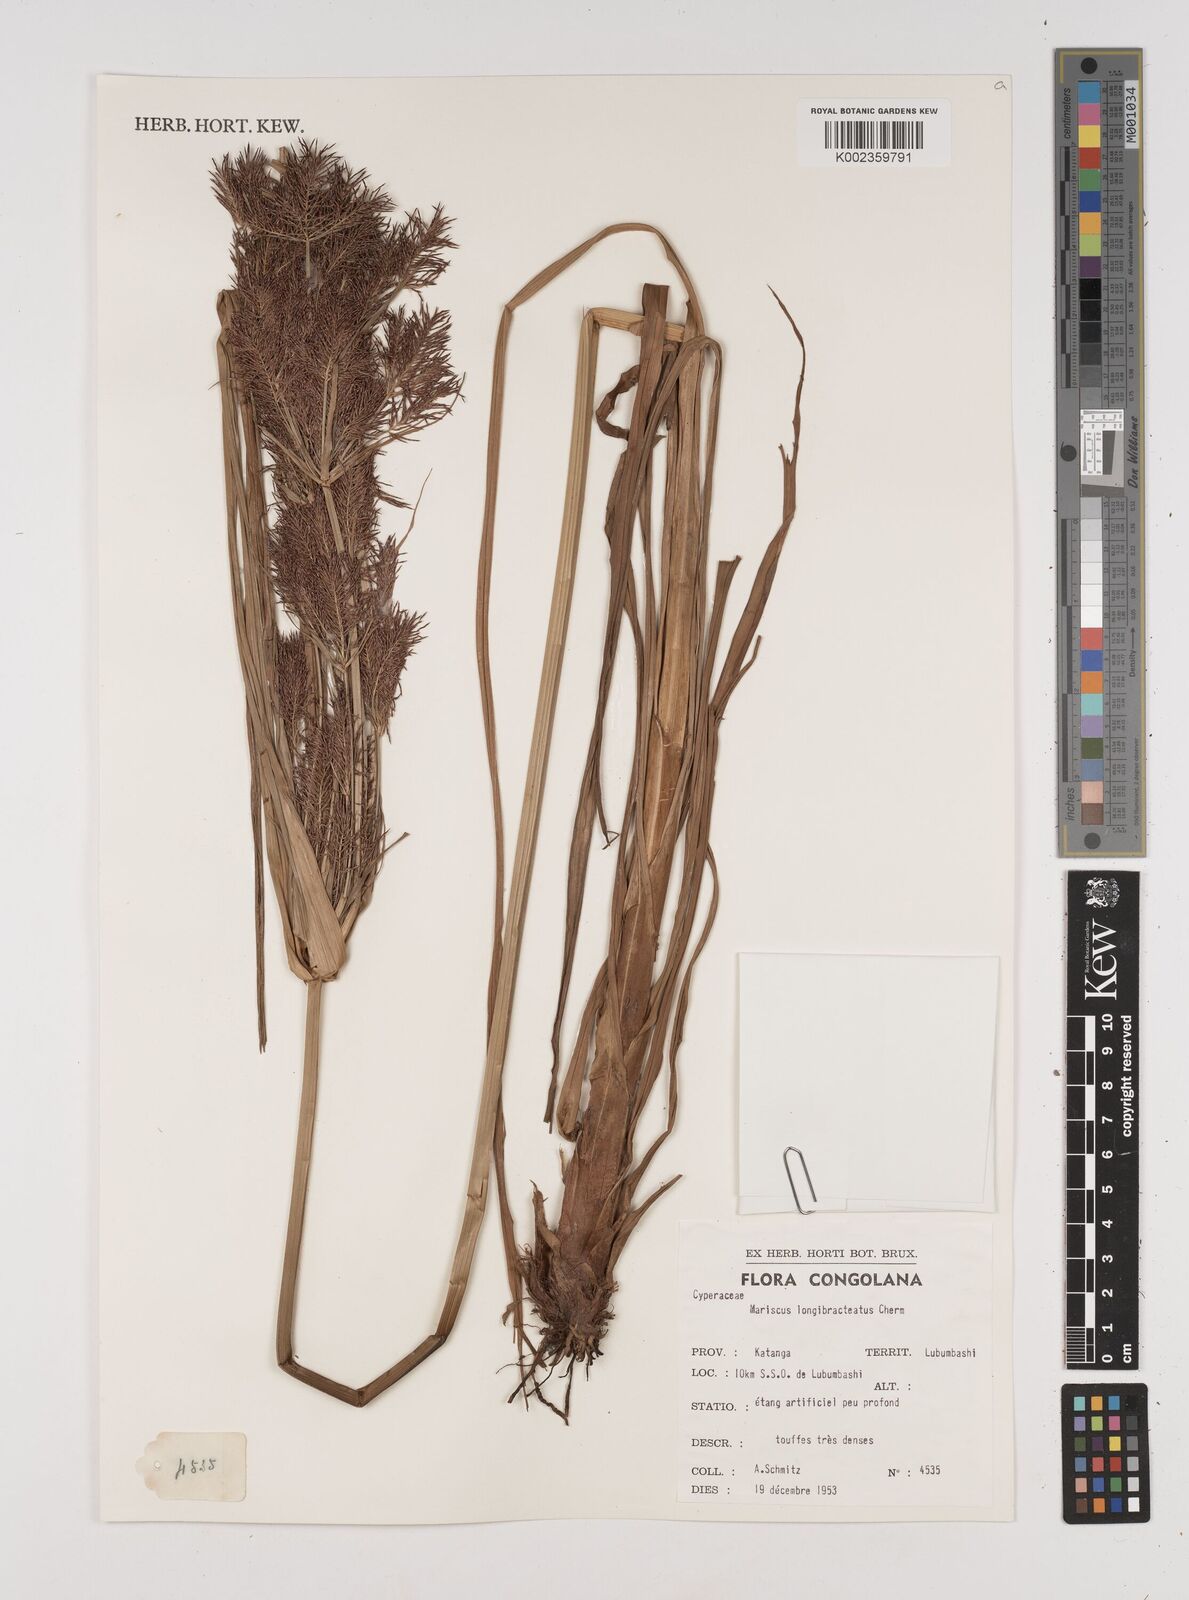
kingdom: Plantae
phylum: Tracheophyta
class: Liliopsida
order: Poales
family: Cyperaceae
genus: Cyperus
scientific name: Cyperus distans
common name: Slender cyperus
